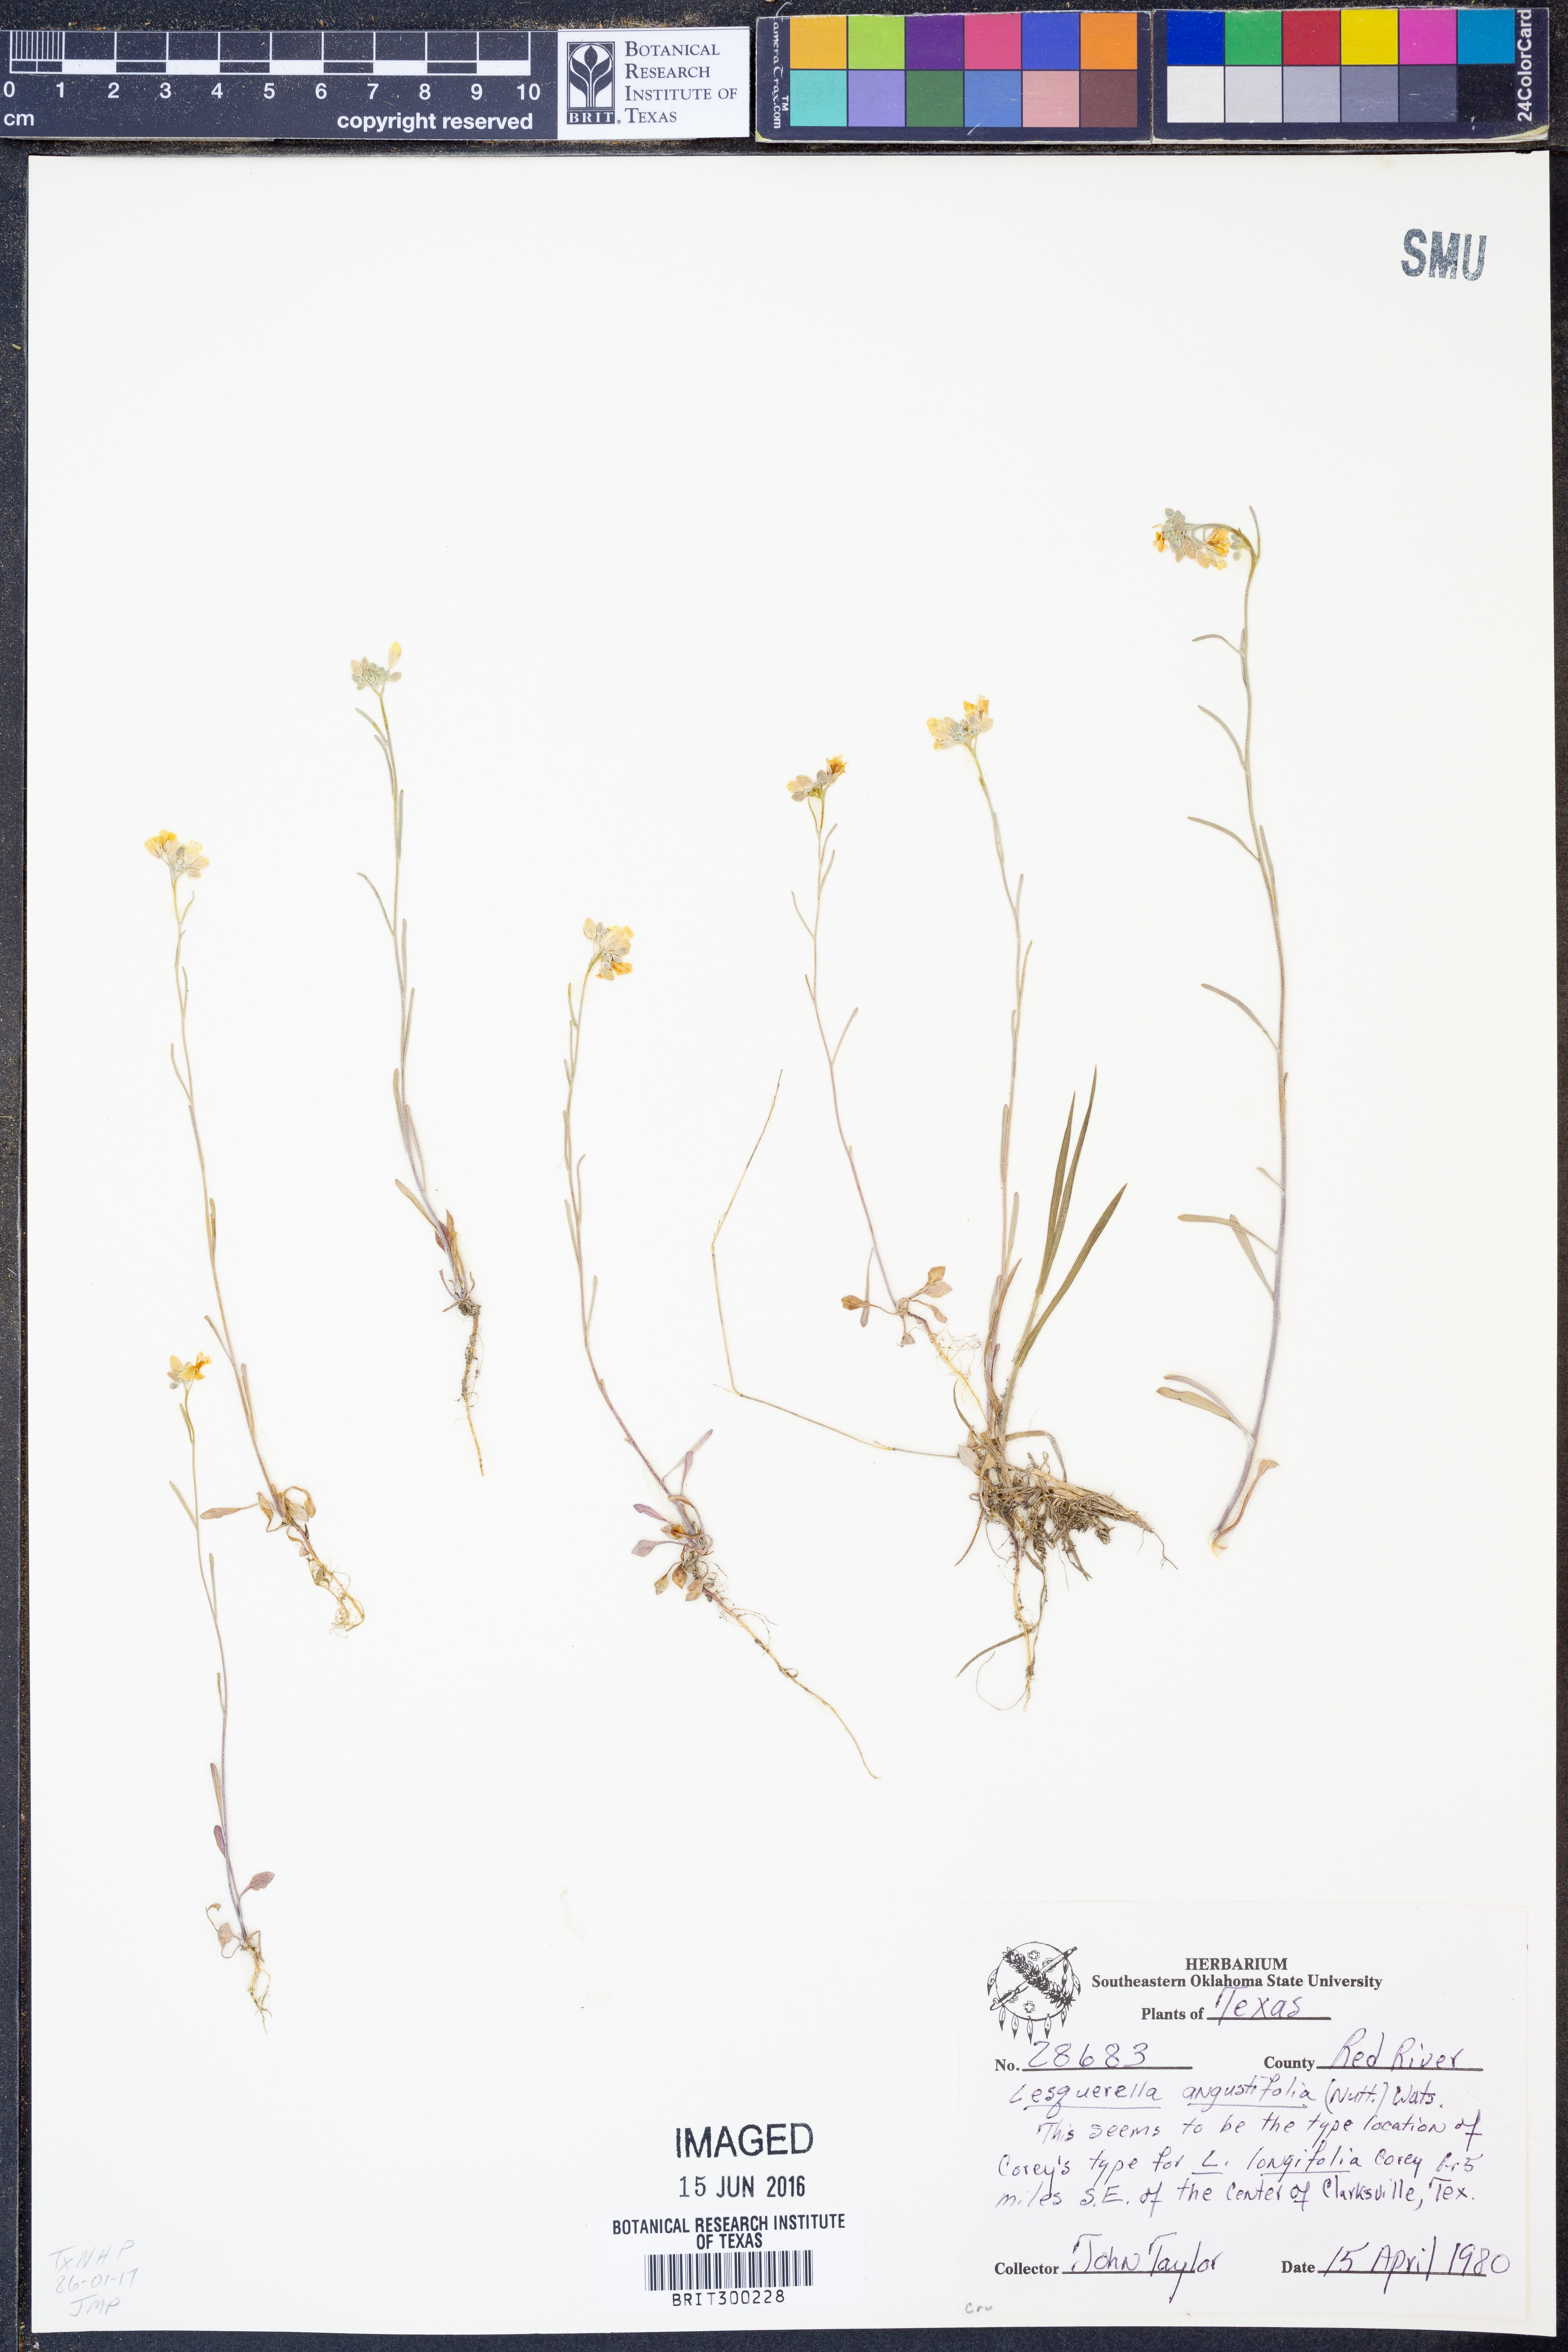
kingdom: Plantae
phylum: Tracheophyta
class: Magnoliopsida
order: Brassicales
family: Brassicaceae
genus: Physaria
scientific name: Physaria angustifolia
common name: Threadleaf bladderpod
